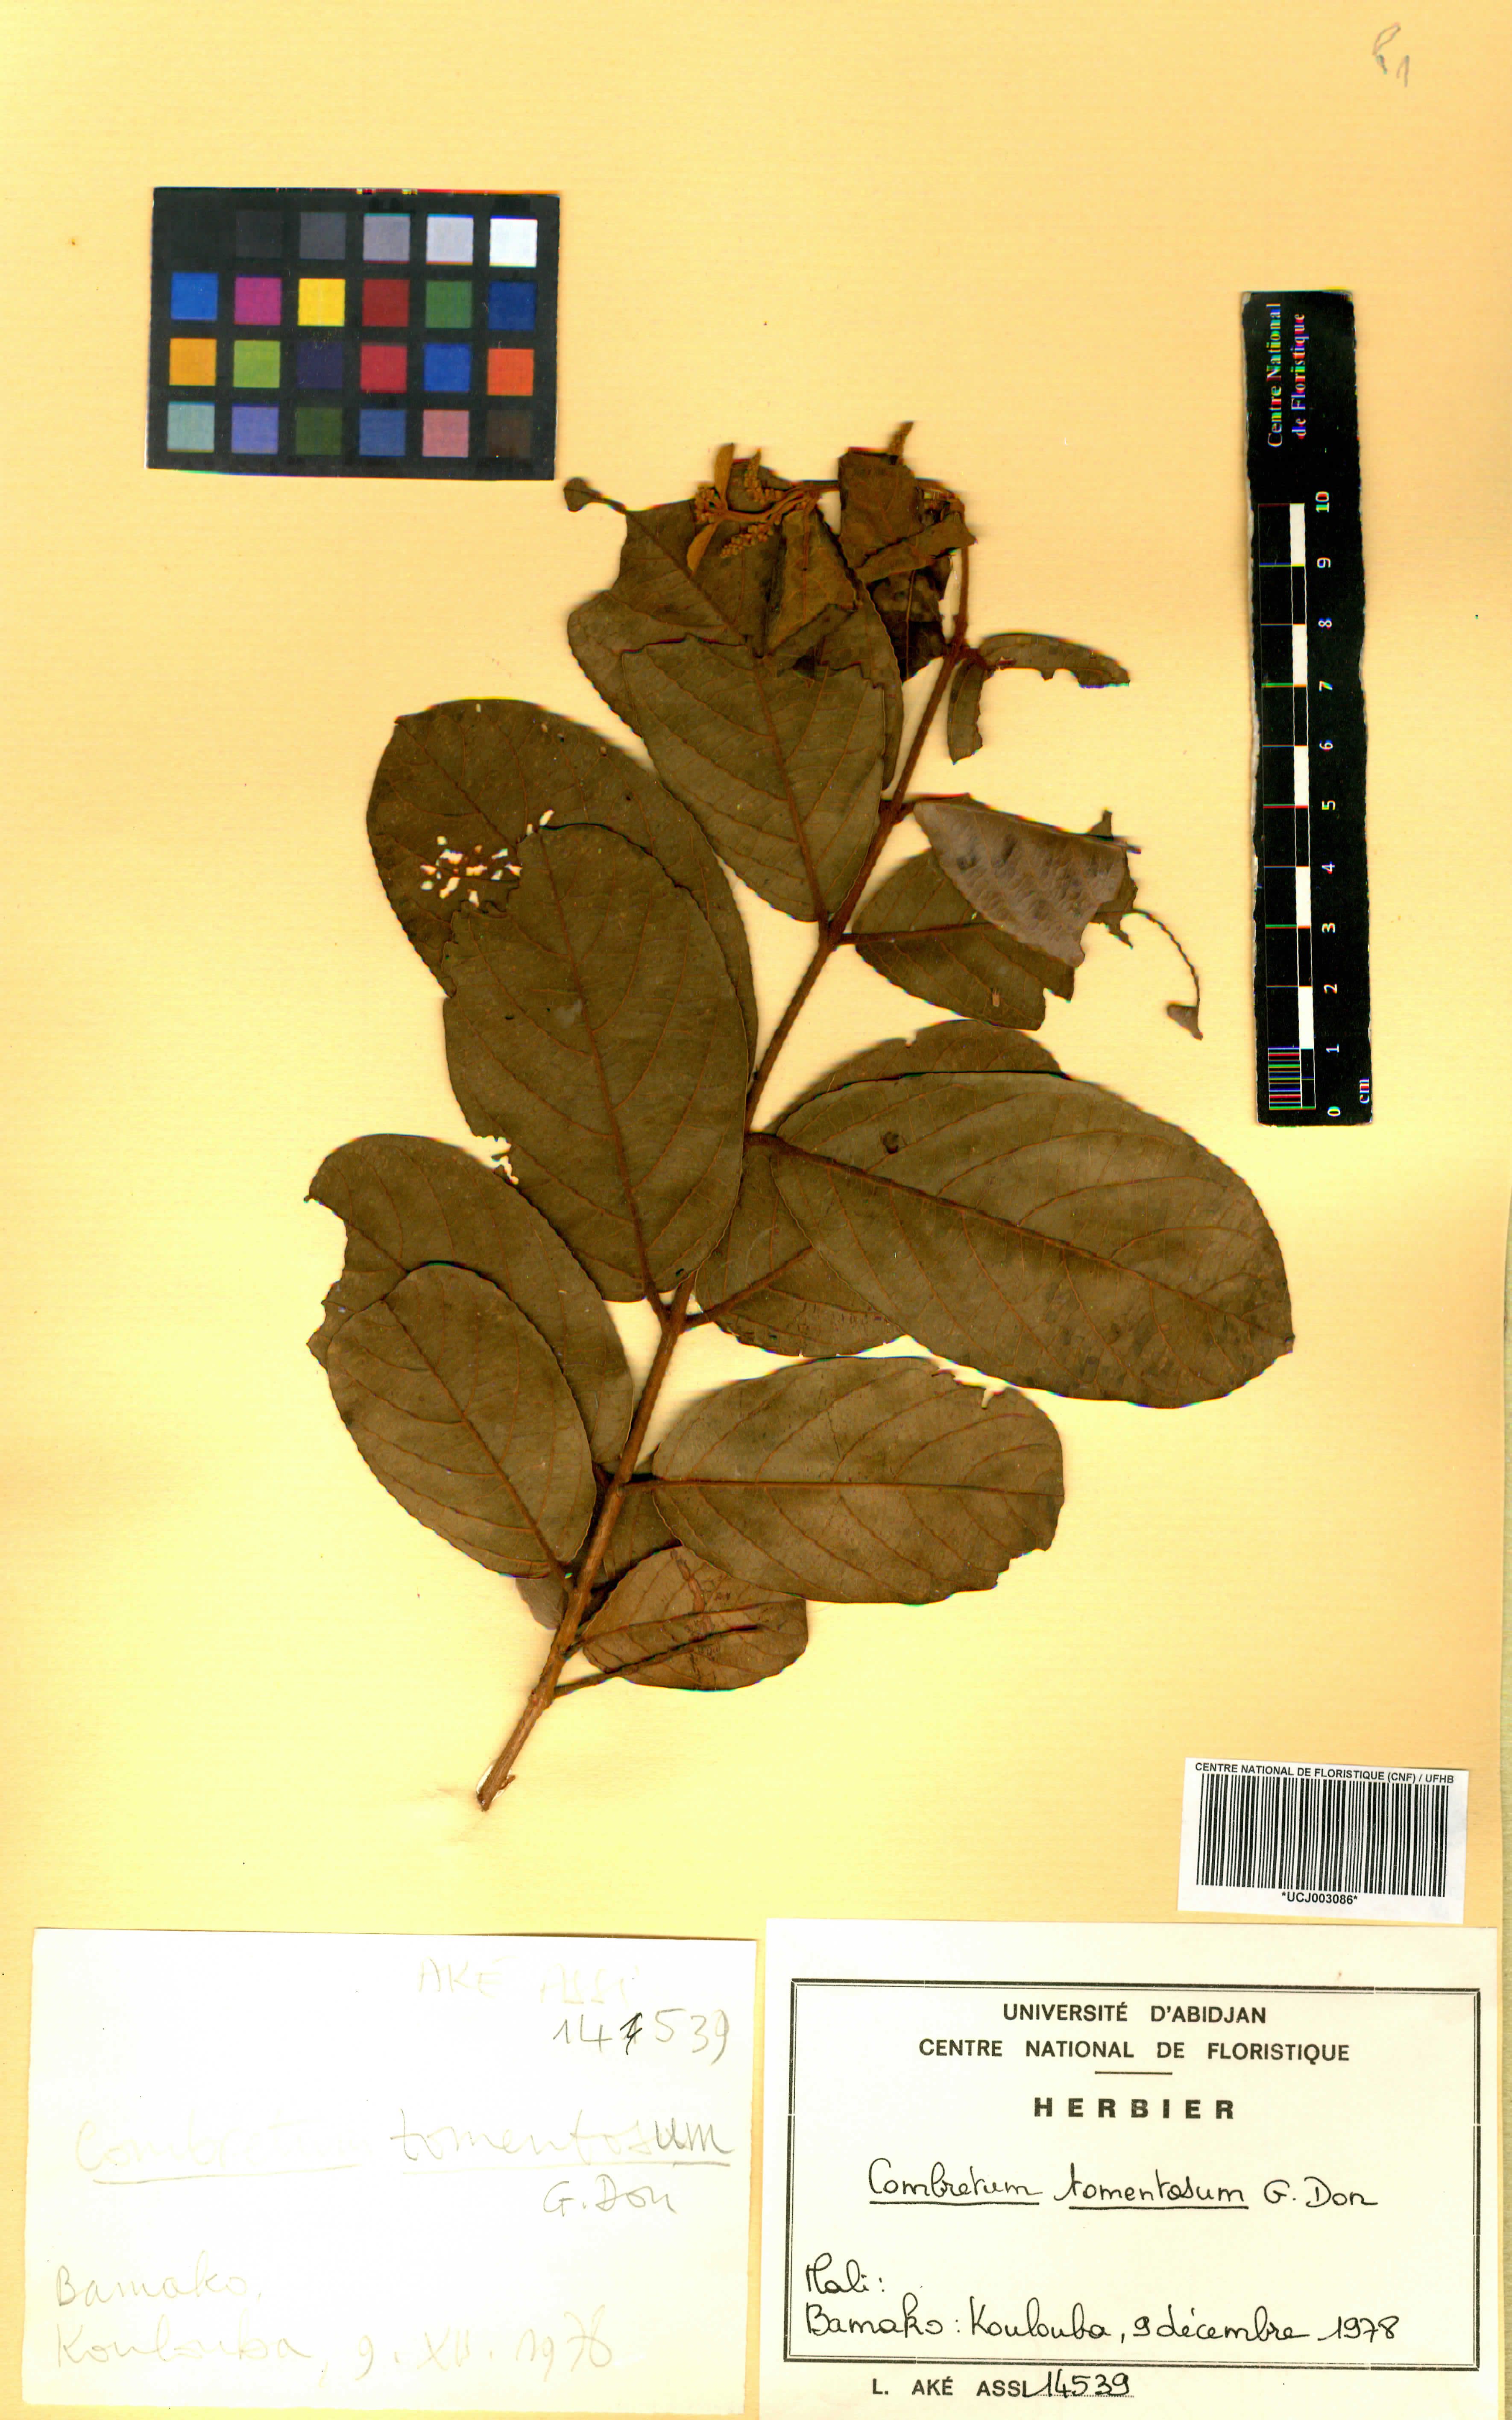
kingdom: Plantae
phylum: Tracheophyta
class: Magnoliopsida
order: Myrtales
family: Combretaceae
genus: Combretum
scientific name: Combretum tomentosum
